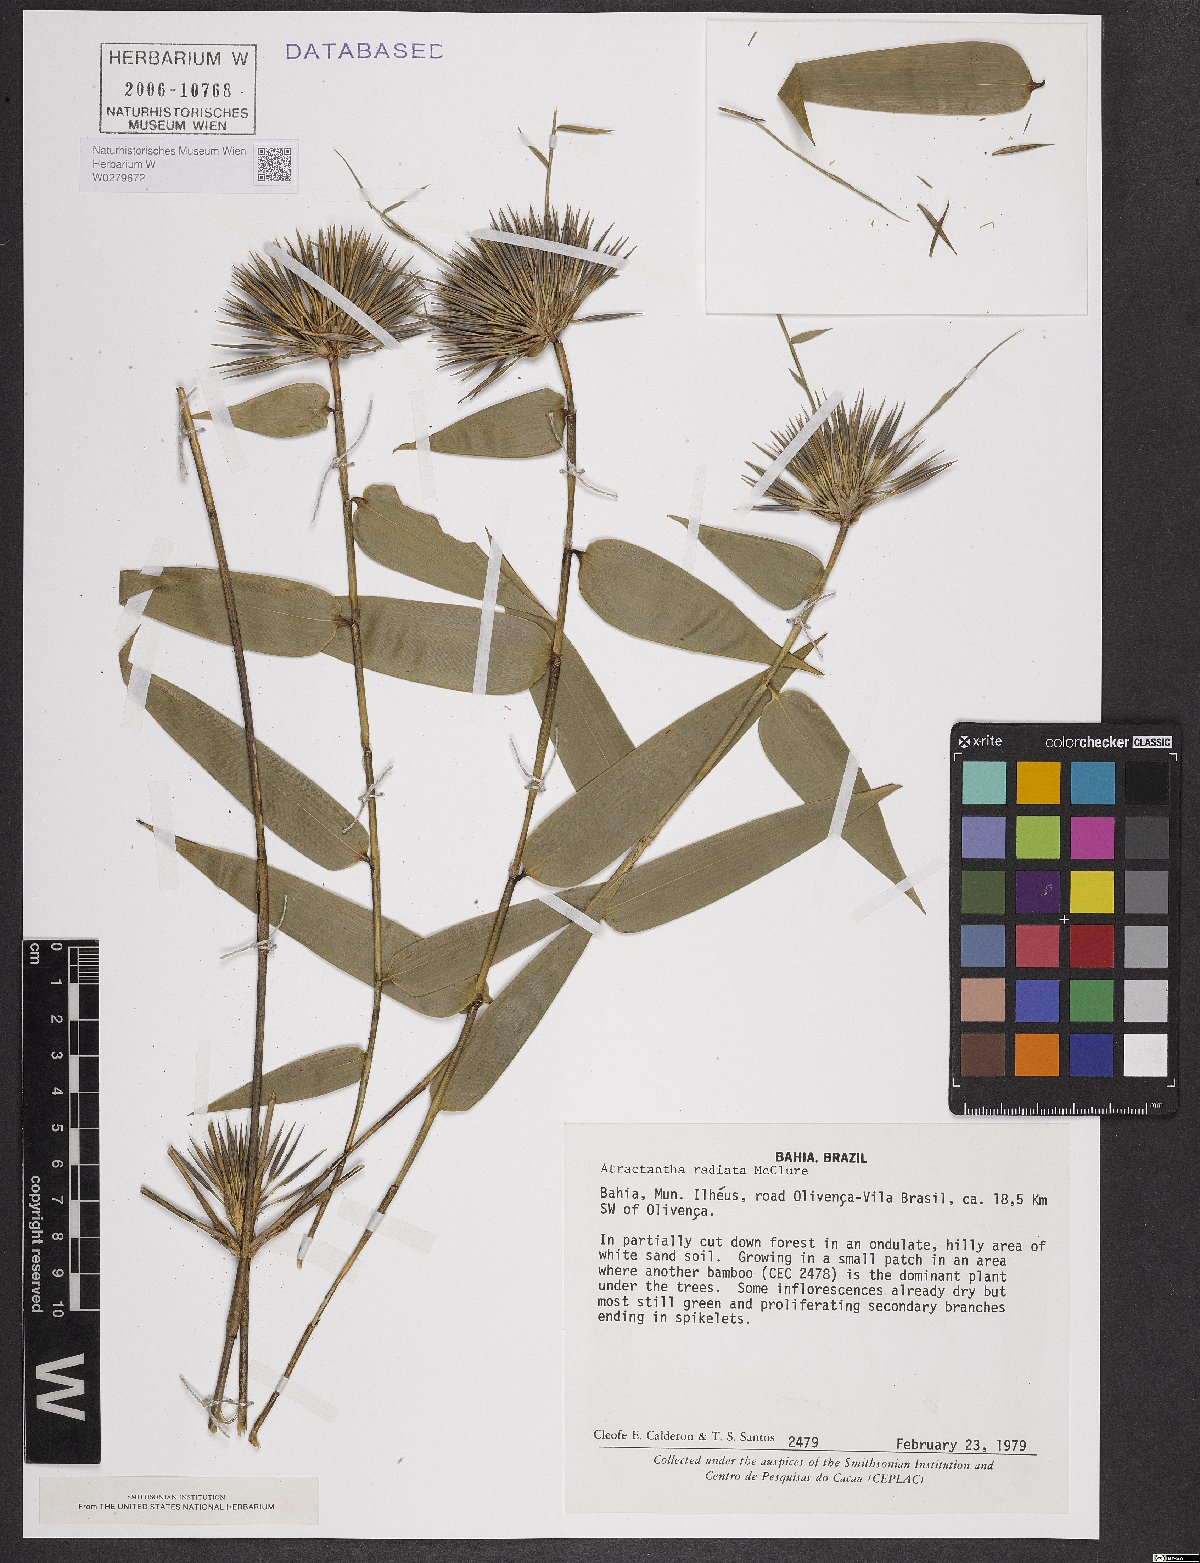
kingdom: Plantae
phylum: Tracheophyta
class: Liliopsida
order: Poales
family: Poaceae
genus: Atractantha
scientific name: Atractantha radiata
